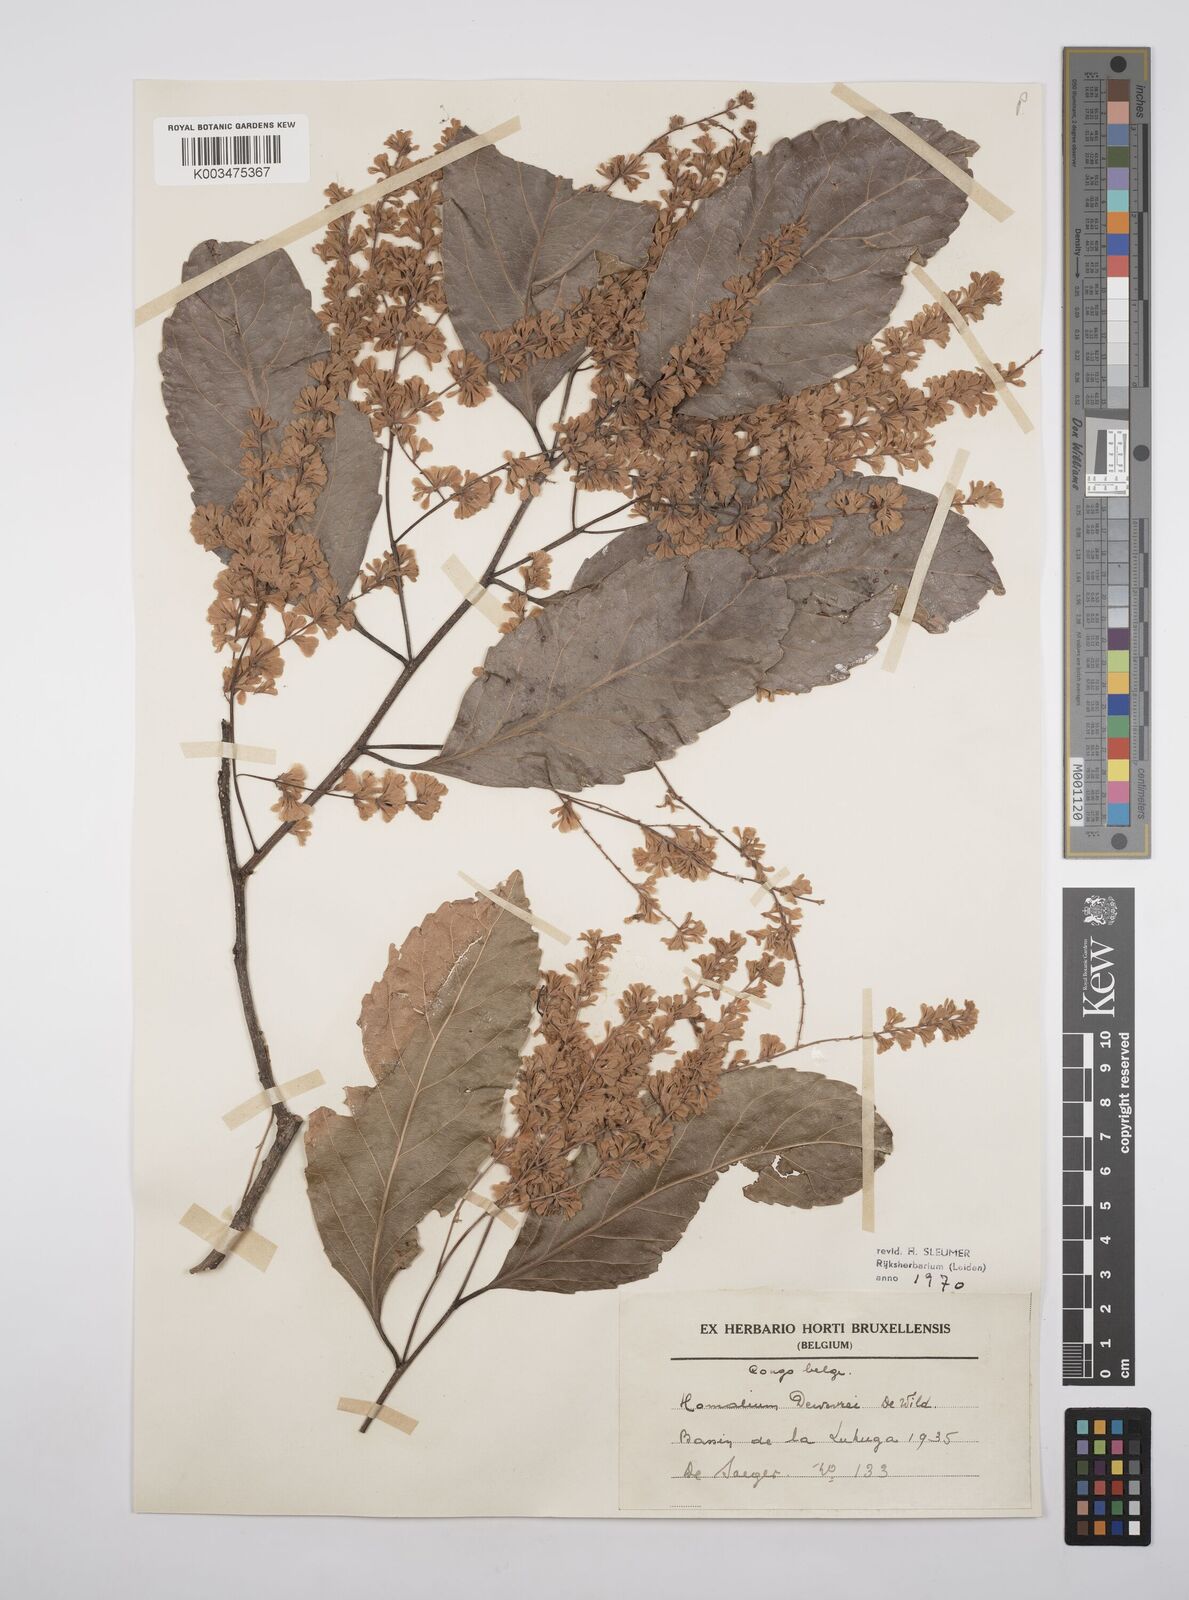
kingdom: Plantae
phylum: Tracheophyta
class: Magnoliopsida
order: Malpighiales
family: Salicaceae
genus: Homalium
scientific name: Homalium dewevrei
